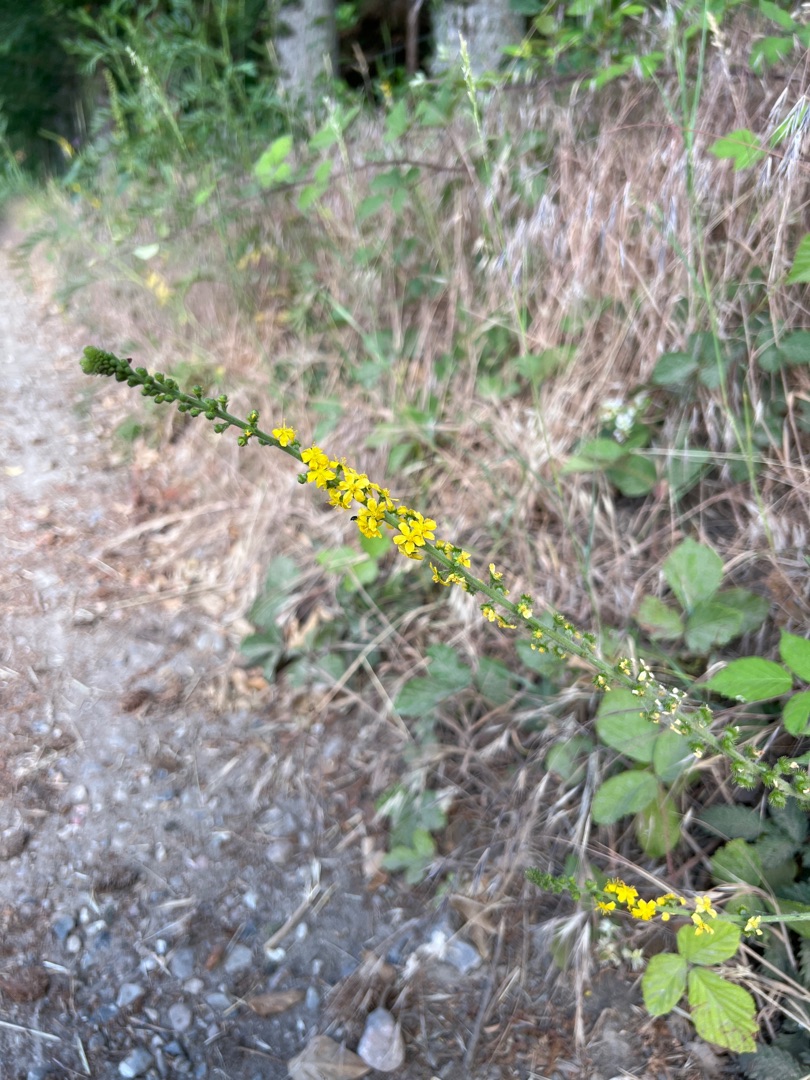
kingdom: Plantae
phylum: Tracheophyta
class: Magnoliopsida
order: Rosales
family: Rosaceae
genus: Agrimonia
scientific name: Agrimonia eupatoria
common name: Almindelig agermåne
